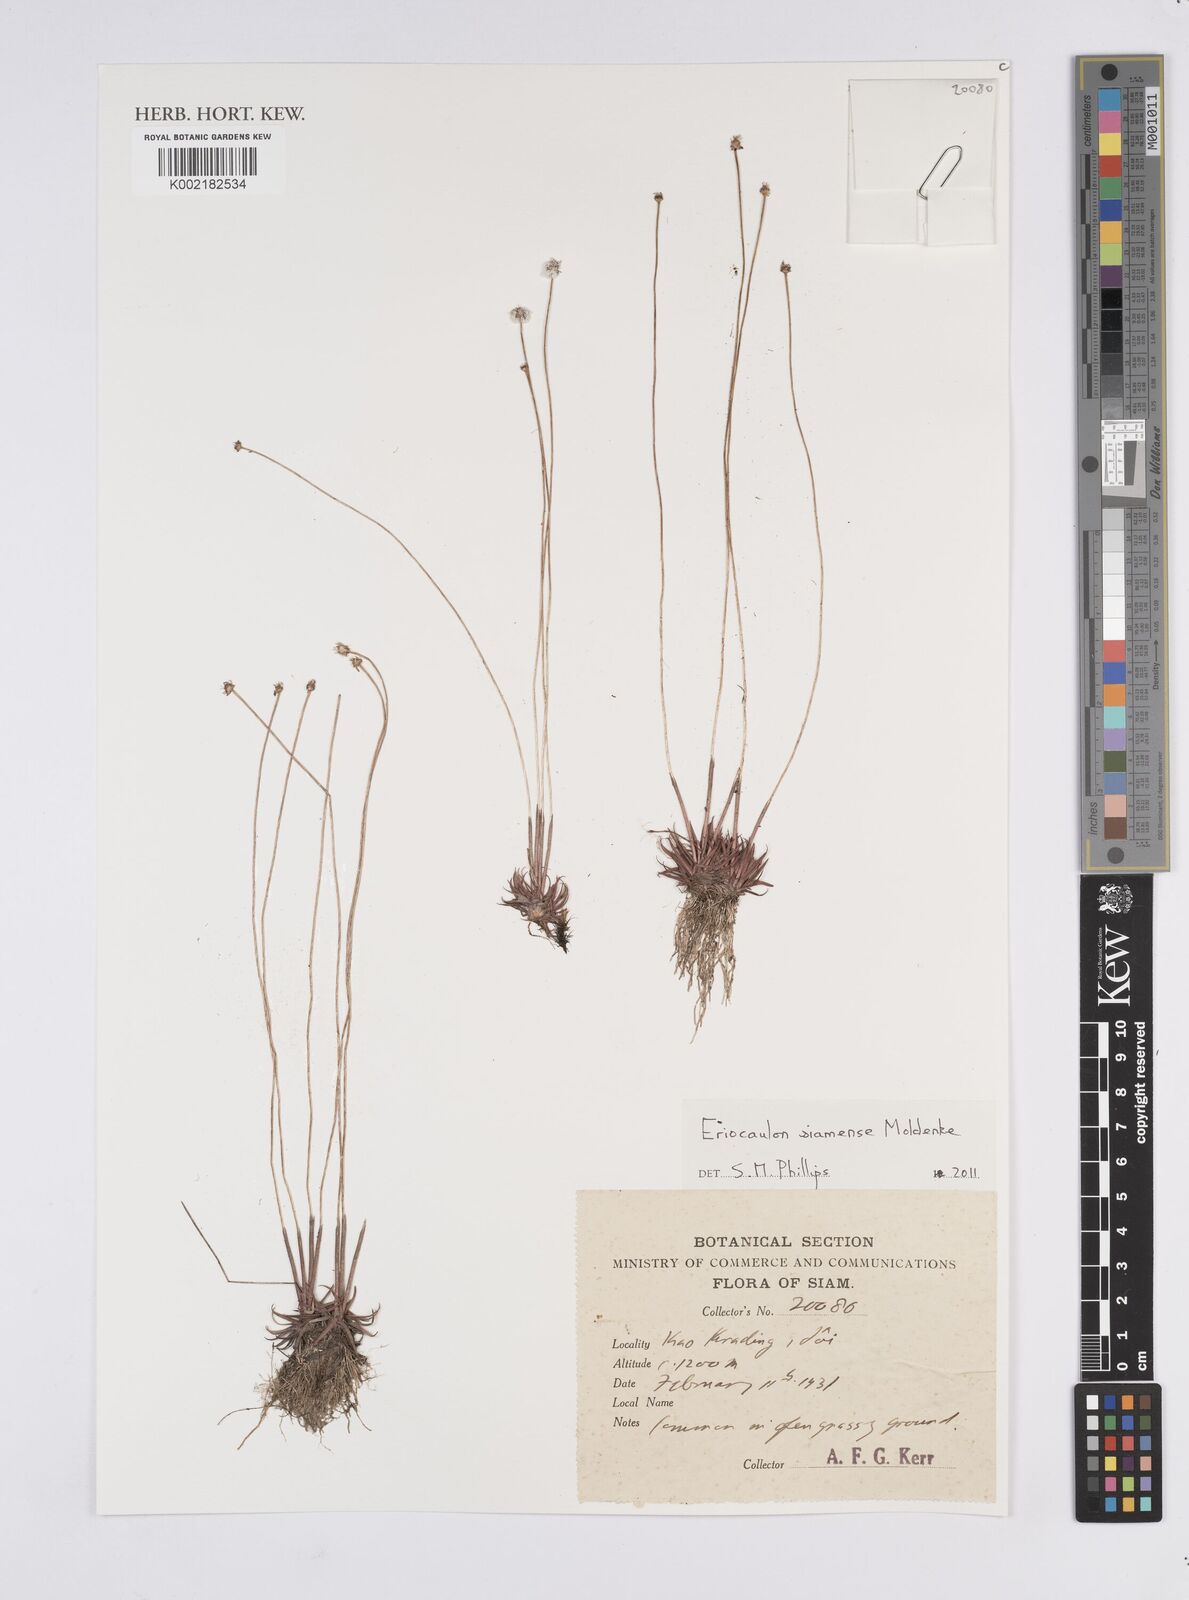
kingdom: Plantae
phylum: Tracheophyta
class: Liliopsida
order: Poales
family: Eriocaulaceae
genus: Eriocaulon
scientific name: Eriocaulon siamense
